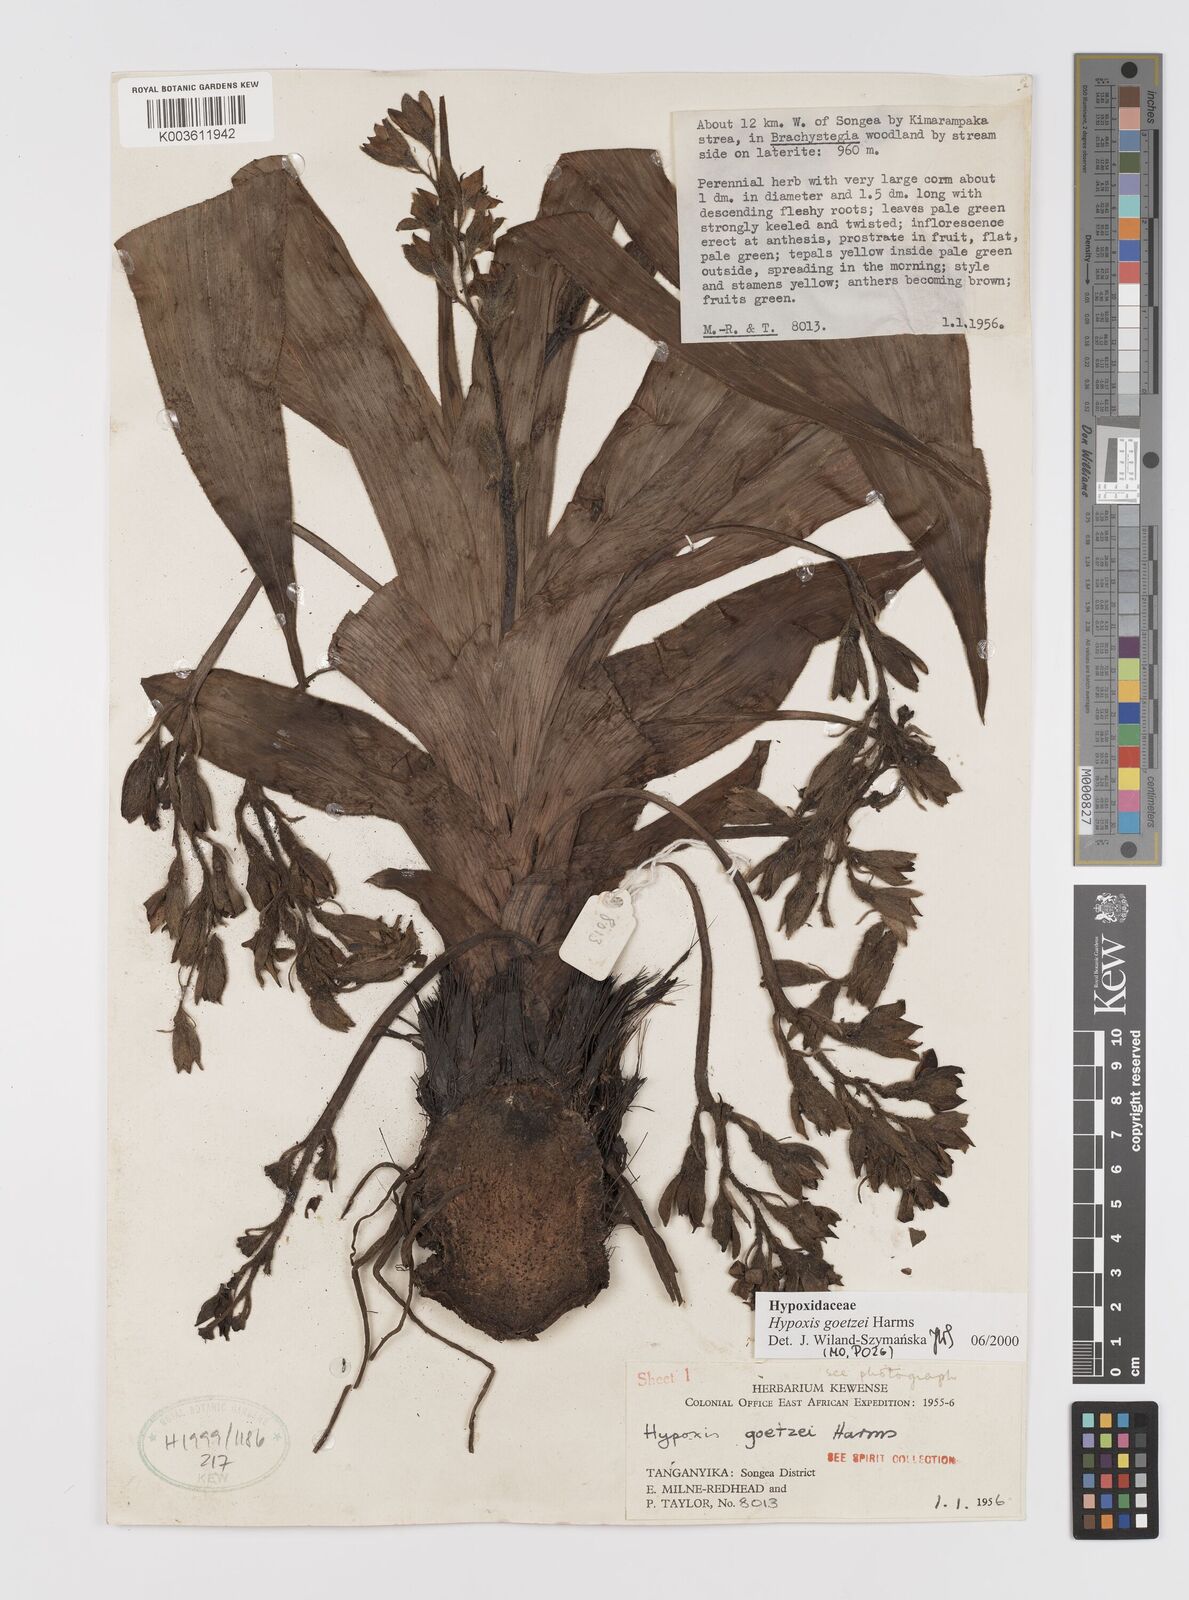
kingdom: Plantae
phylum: Tracheophyta
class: Liliopsida
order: Asparagales
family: Hypoxidaceae
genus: Hypoxis
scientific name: Hypoxis goetzei
